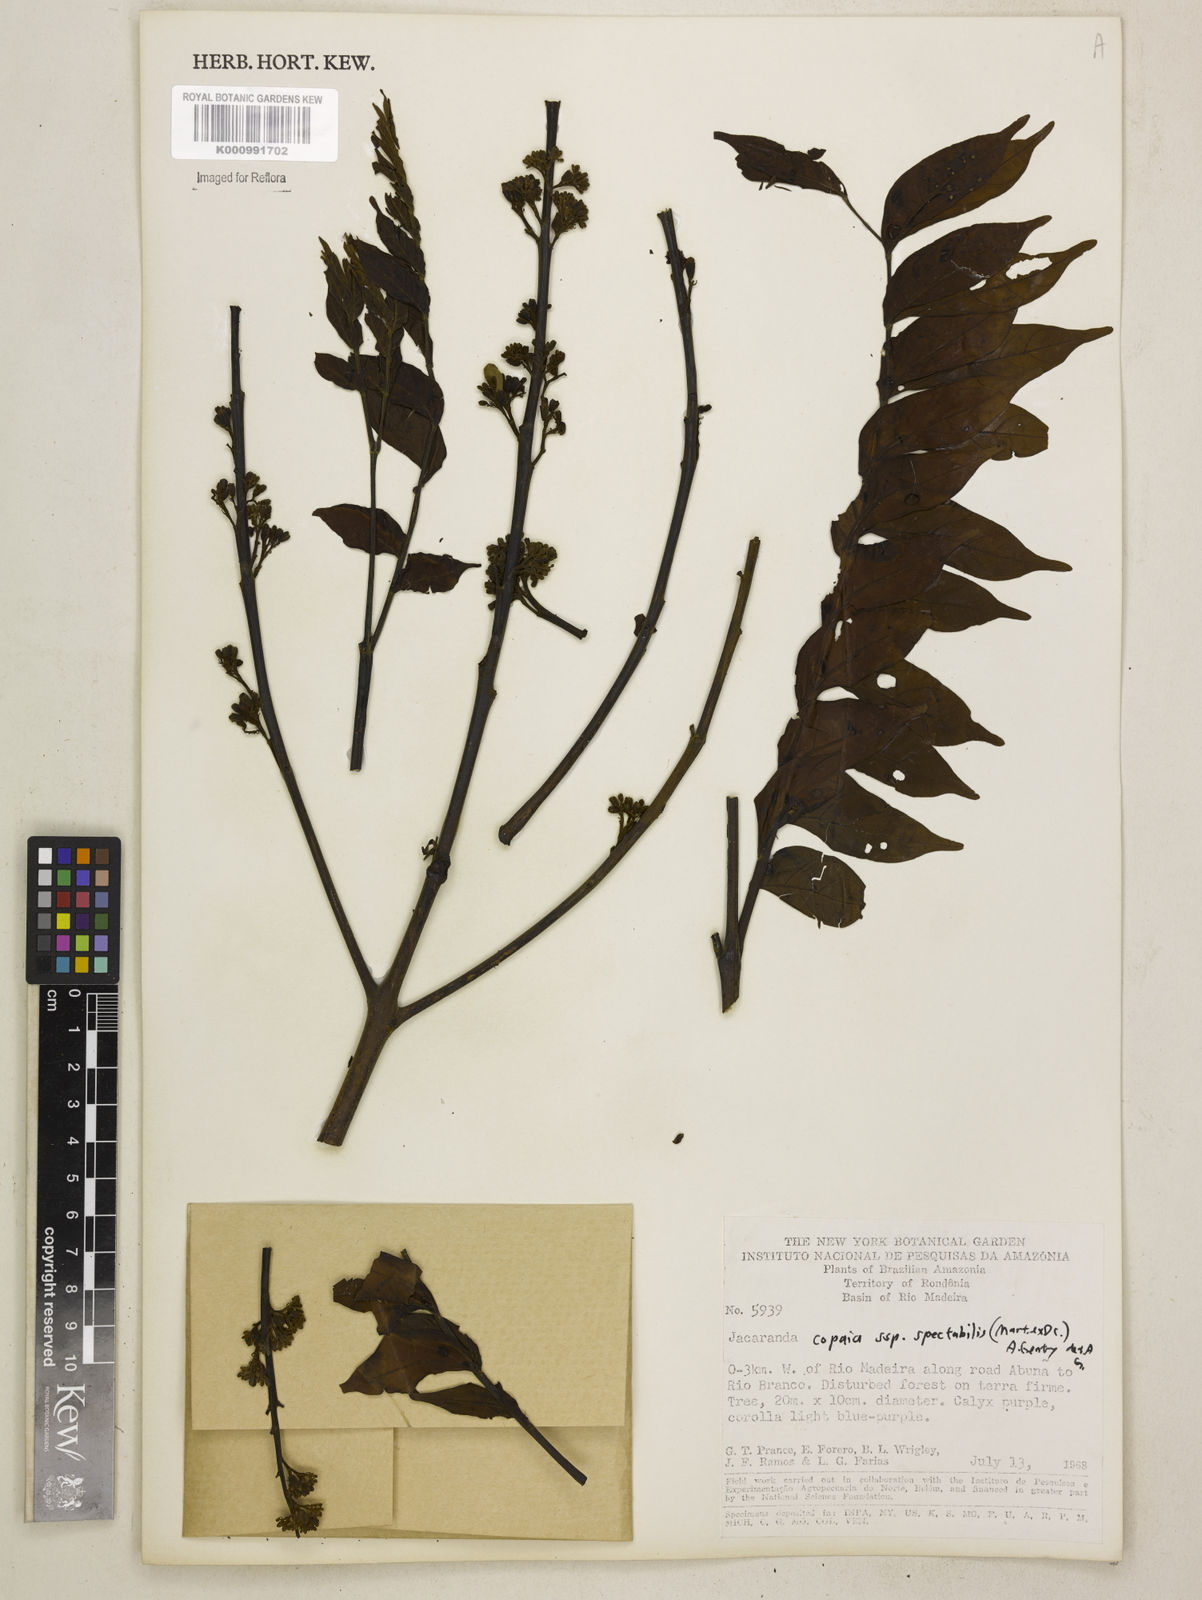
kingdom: Plantae
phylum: Tracheophyta
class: Magnoliopsida
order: Lamiales
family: Bignoniaceae
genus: Jacaranda
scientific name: Jacaranda copaia
